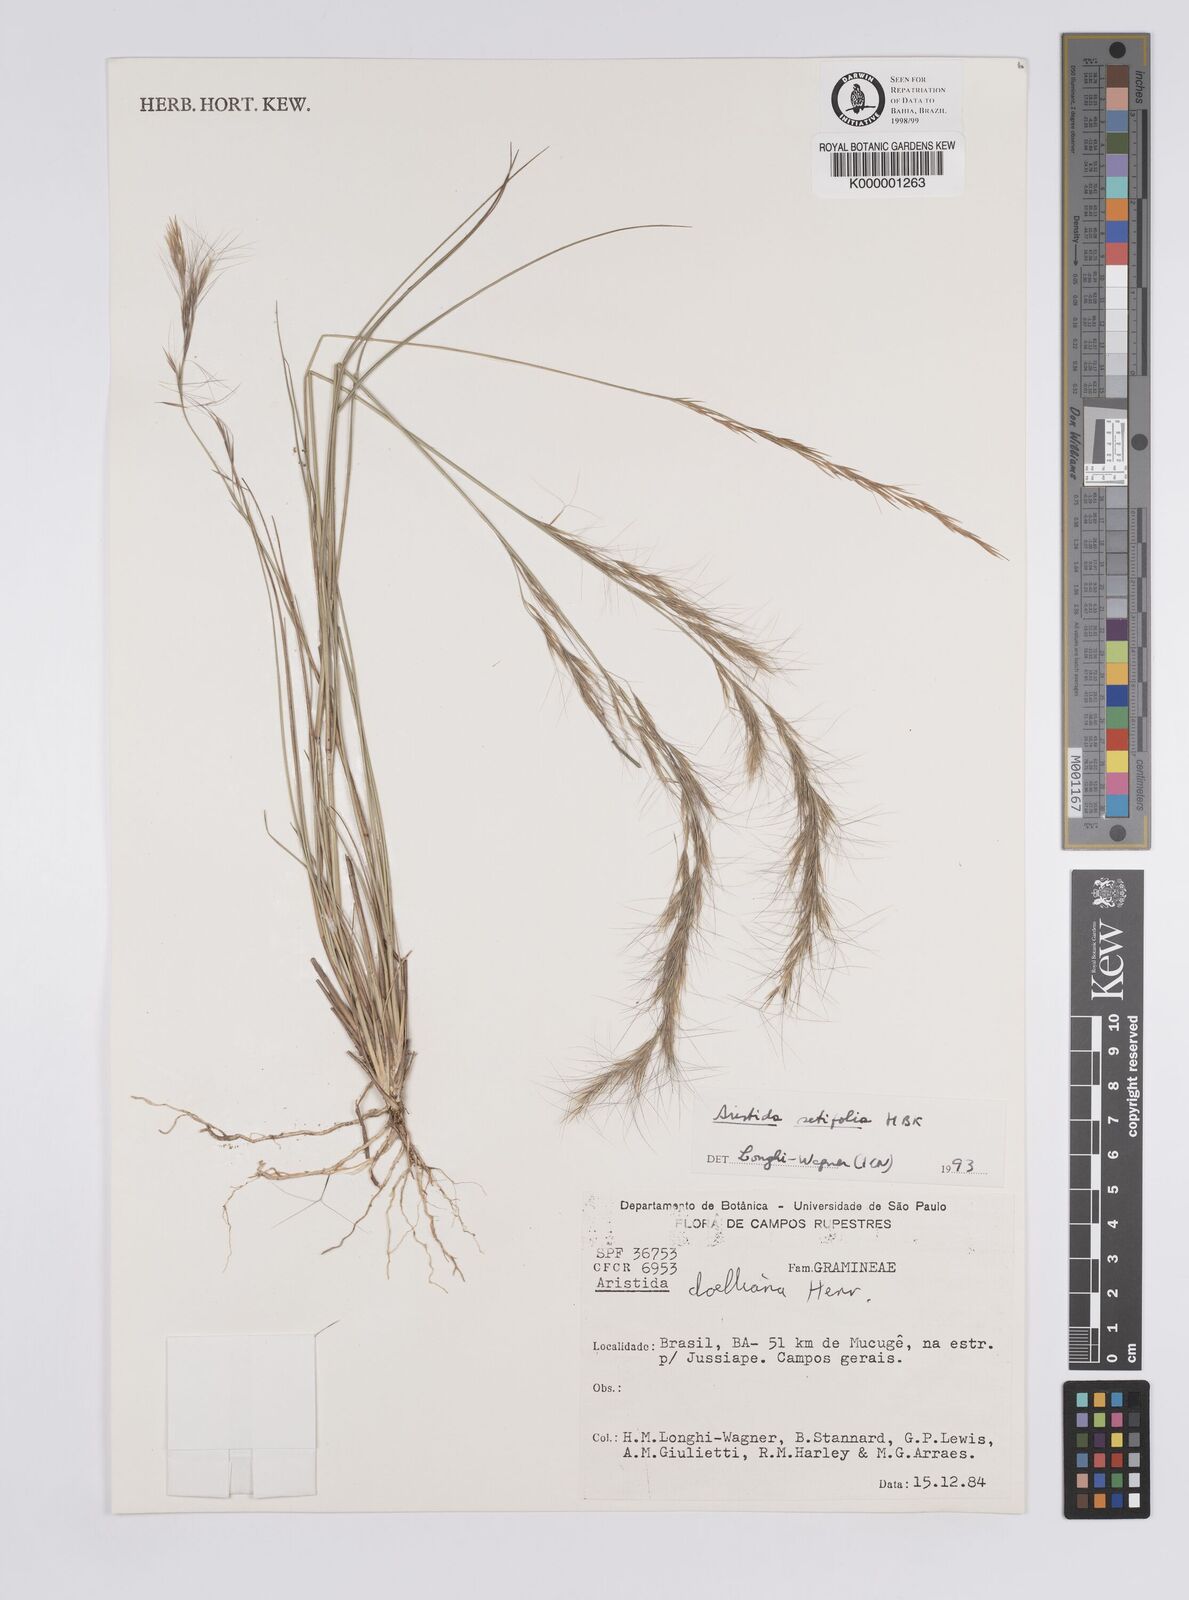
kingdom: Plantae
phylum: Tracheophyta
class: Liliopsida
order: Poales
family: Poaceae
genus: Aristida
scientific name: Aristida setifolia
